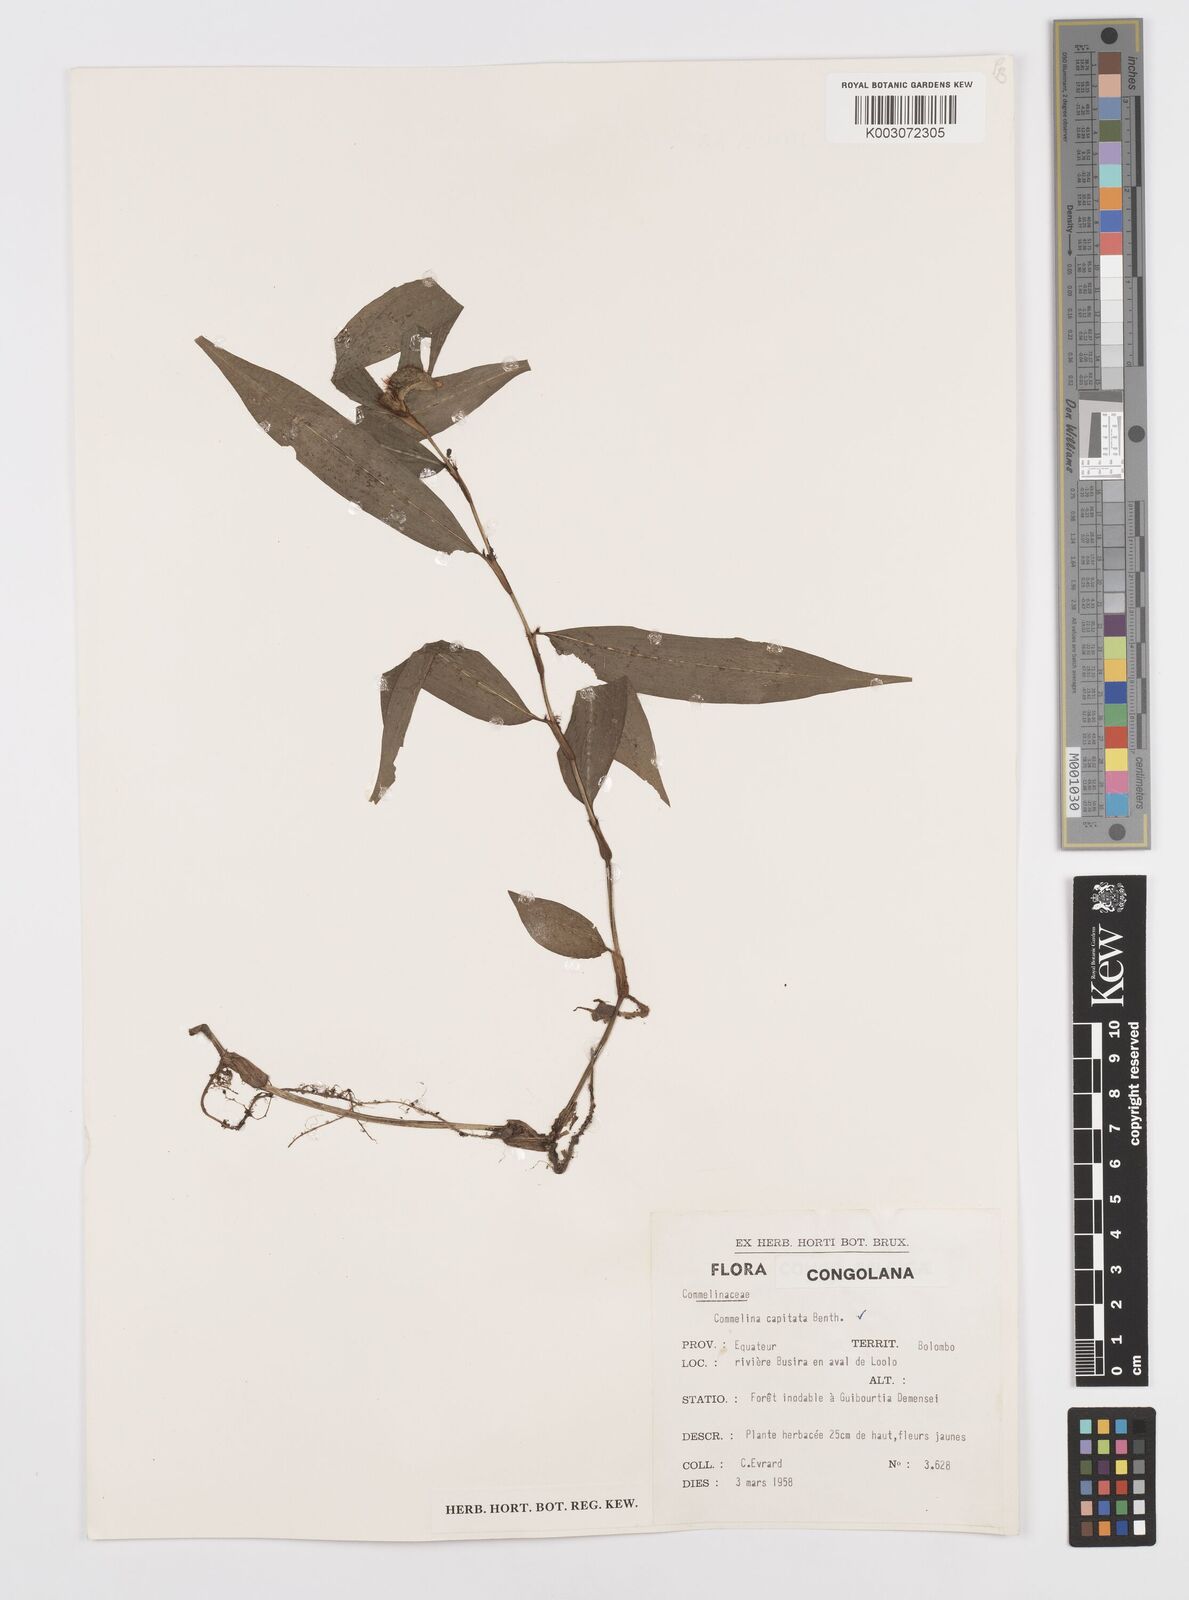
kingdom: Plantae
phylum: Tracheophyta
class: Liliopsida
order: Commelinales
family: Commelinaceae
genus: Commelina
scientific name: Commelina capitata
